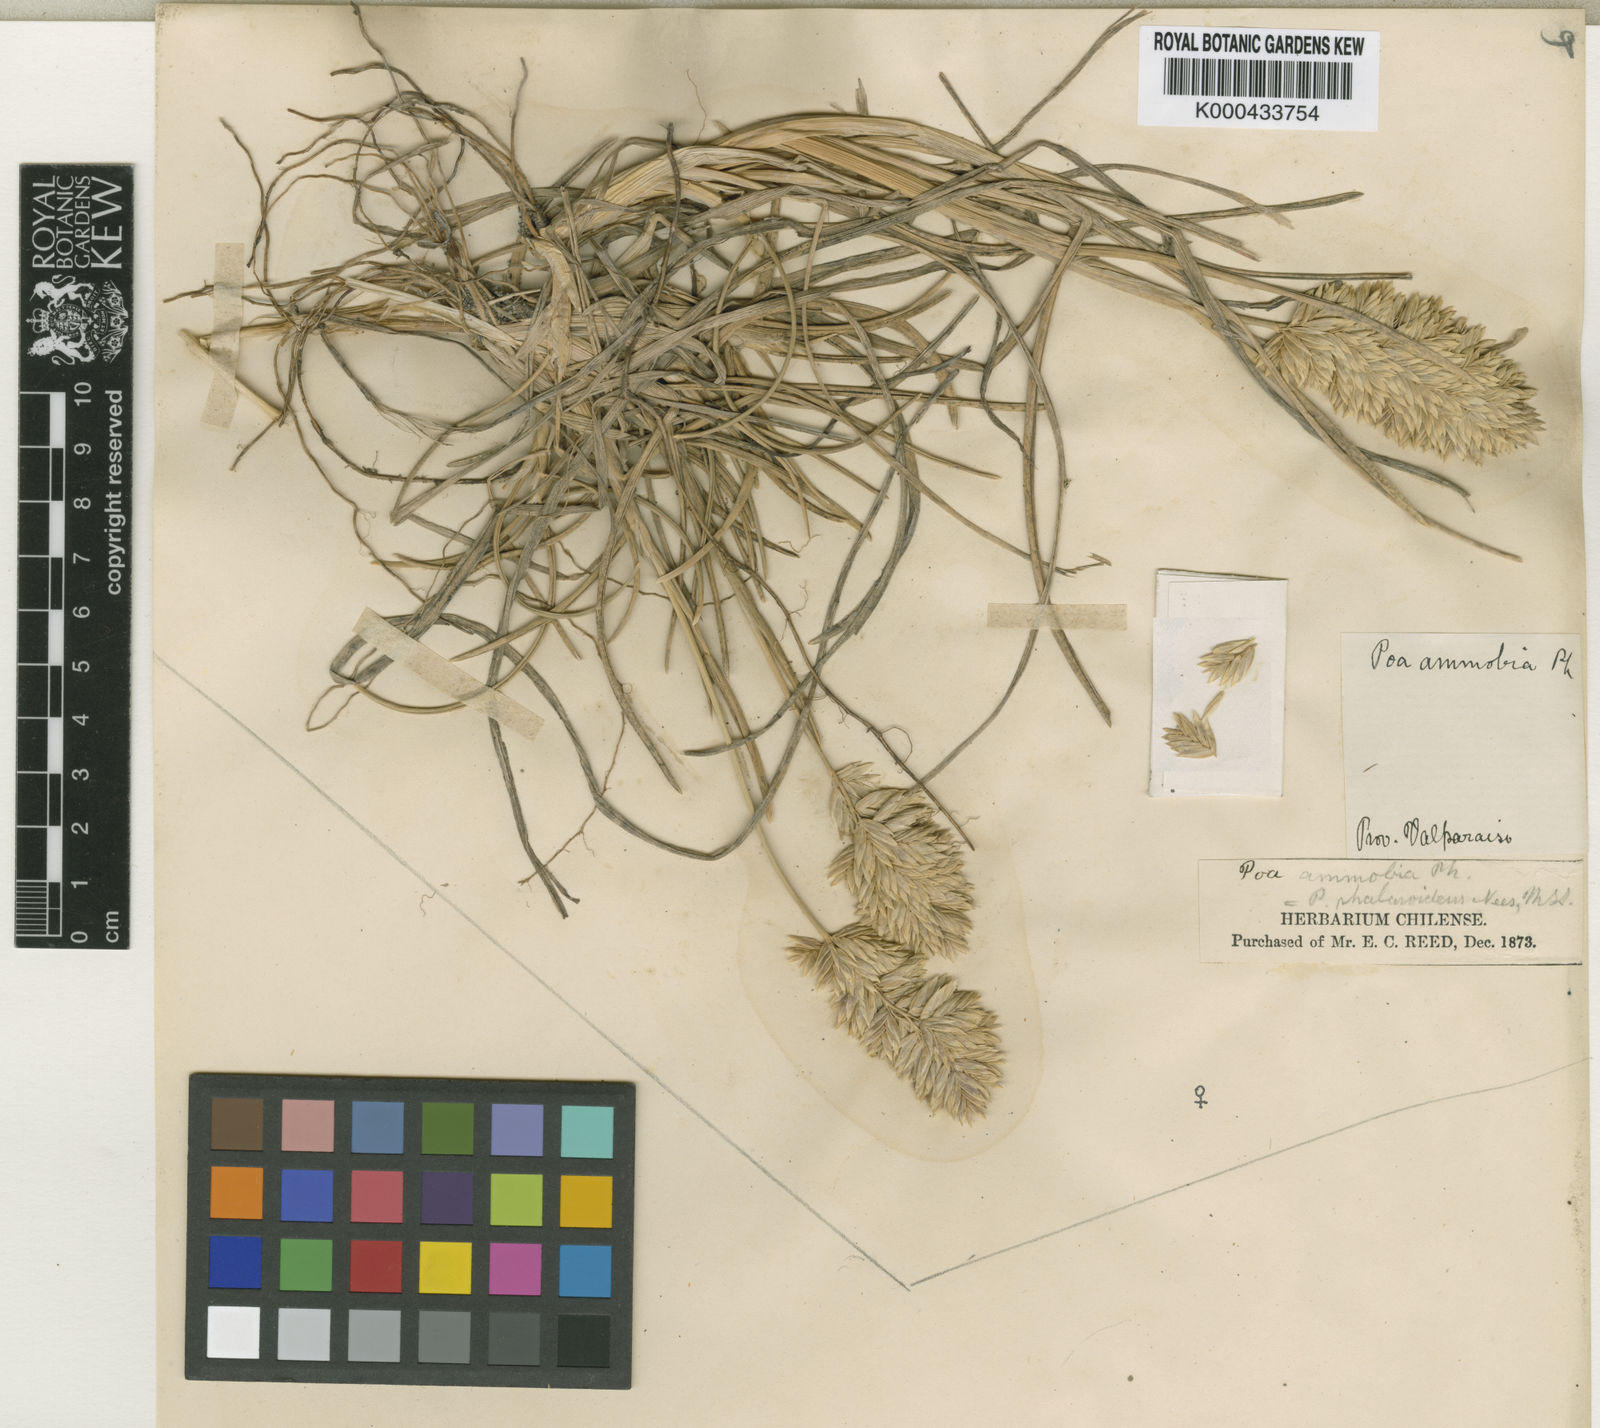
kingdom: Plantae
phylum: Tracheophyta
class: Liliopsida
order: Poales
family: Poaceae
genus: Poa
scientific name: Poa obvallata
